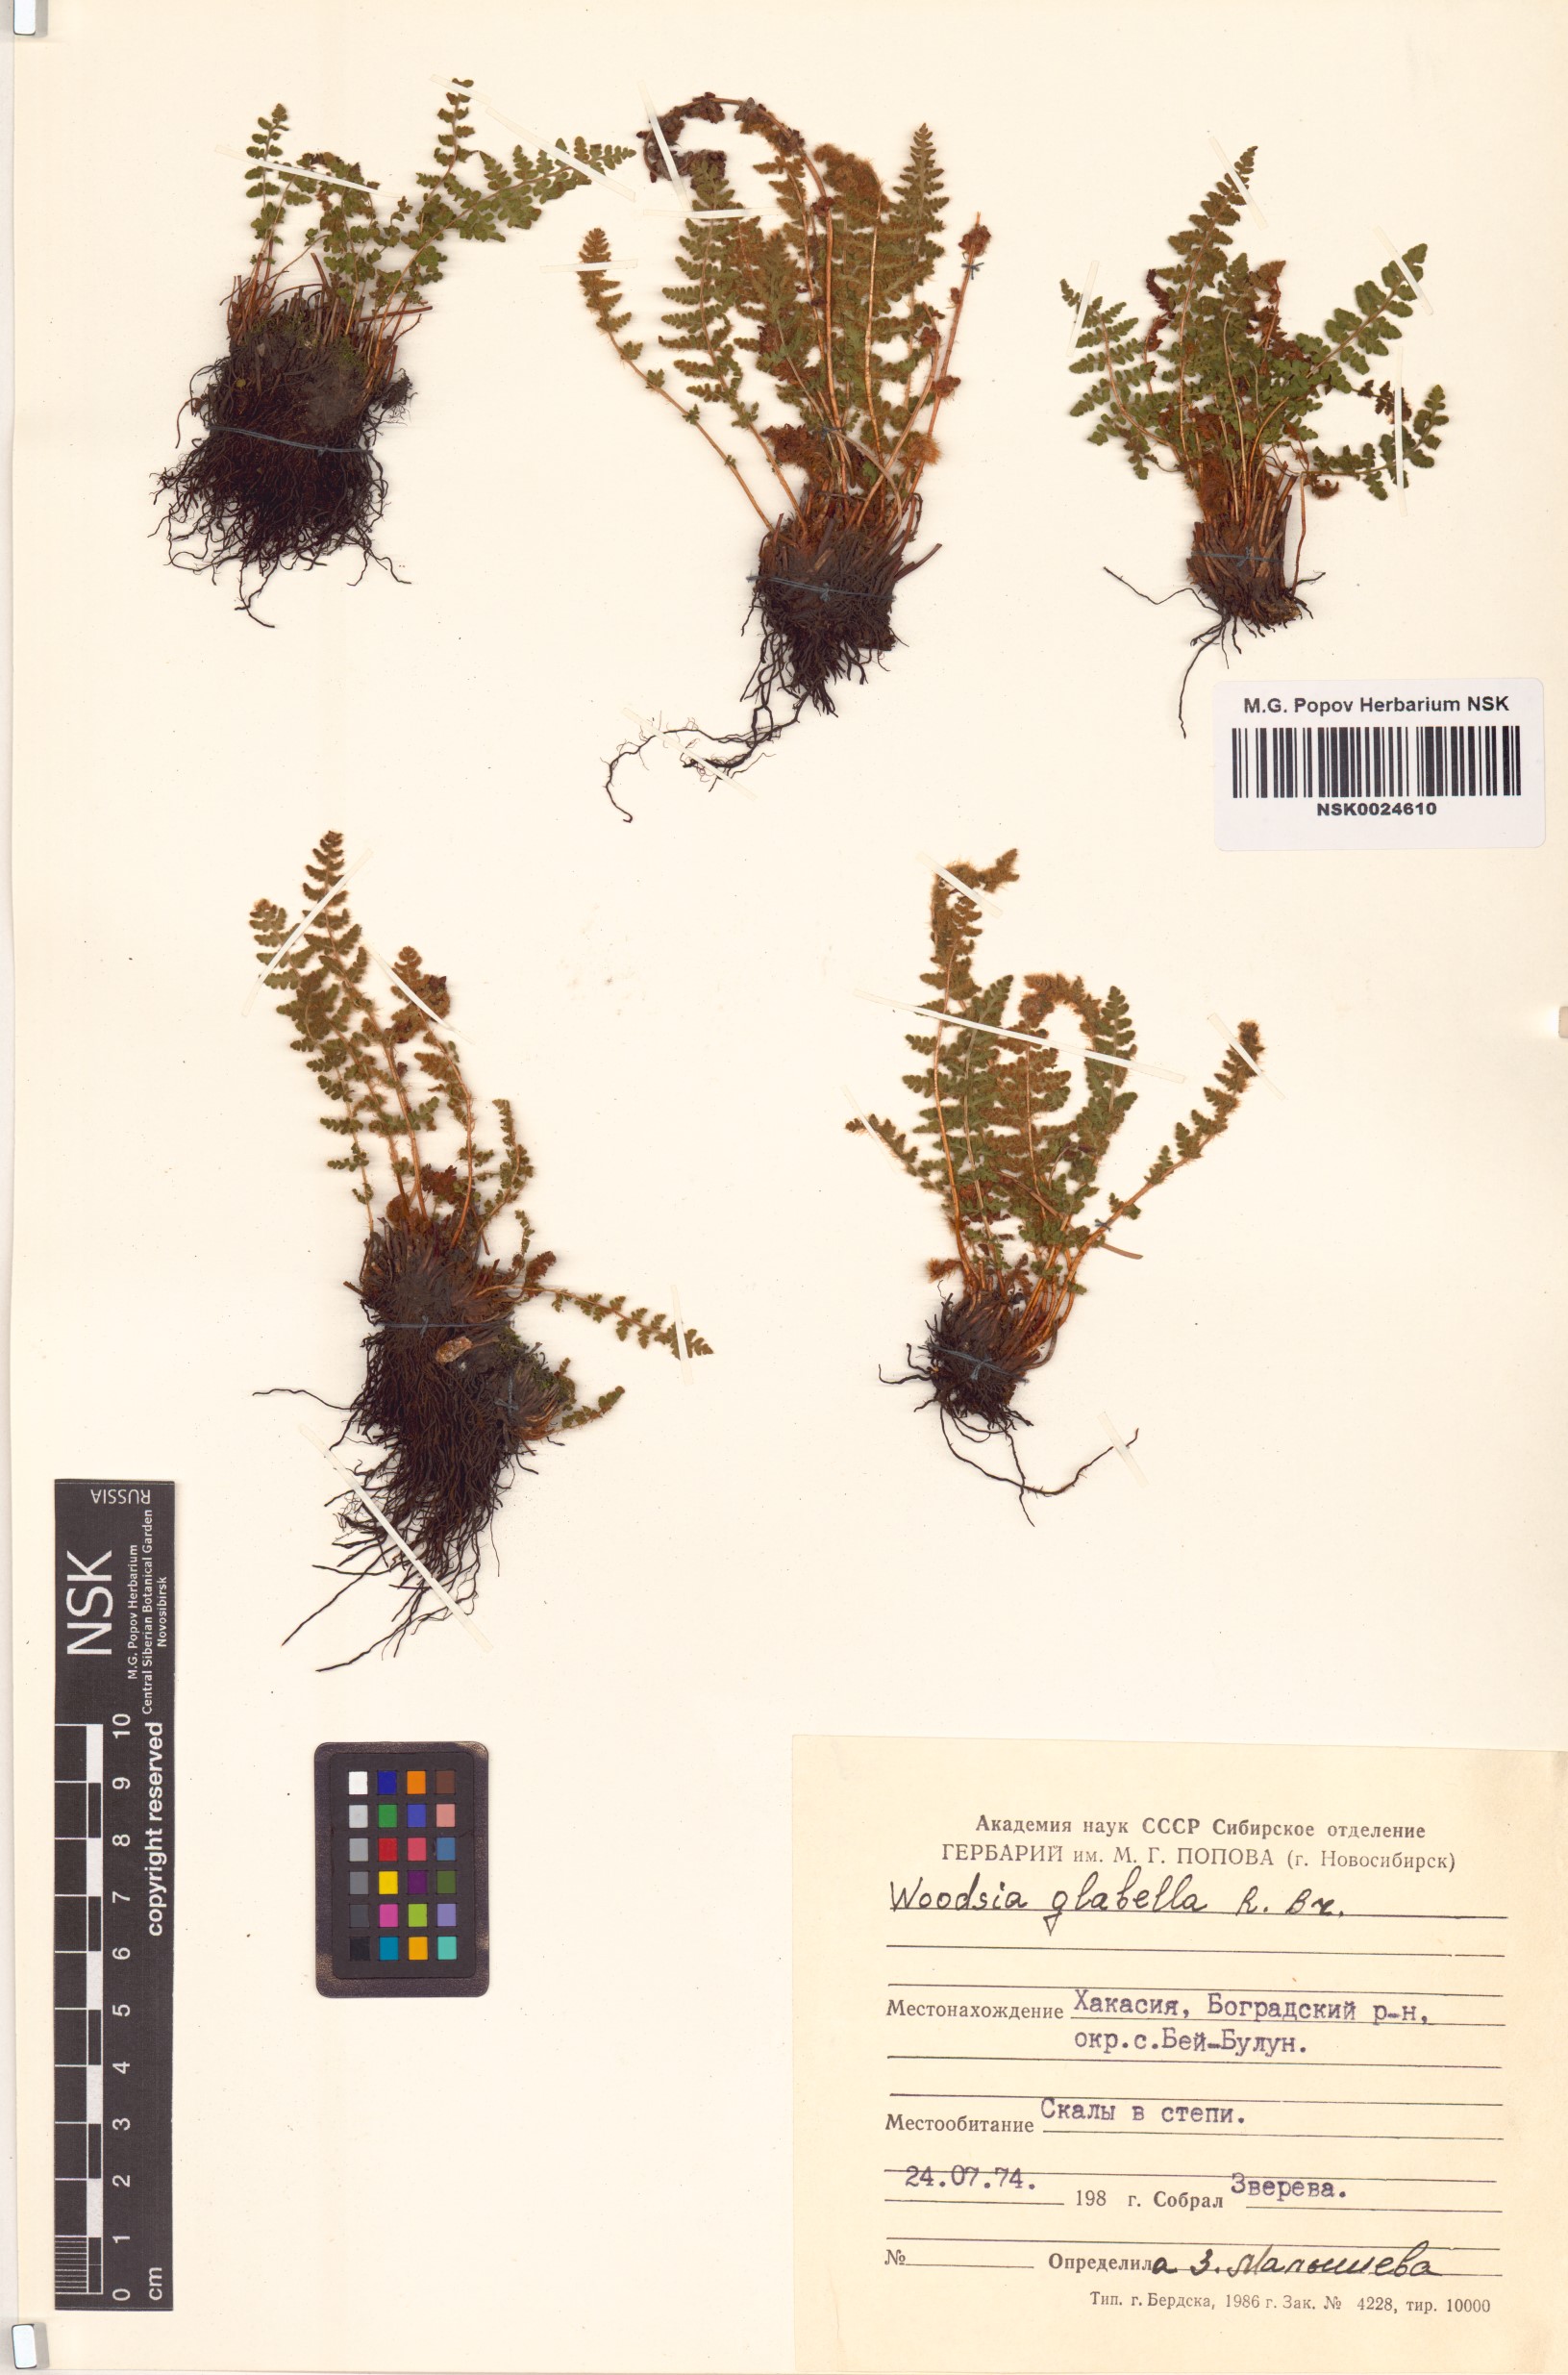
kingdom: Plantae
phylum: Tracheophyta
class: Polypodiopsida
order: Polypodiales
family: Woodsiaceae
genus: Woodsia
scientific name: Woodsia glabella
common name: Smooth woodsia
